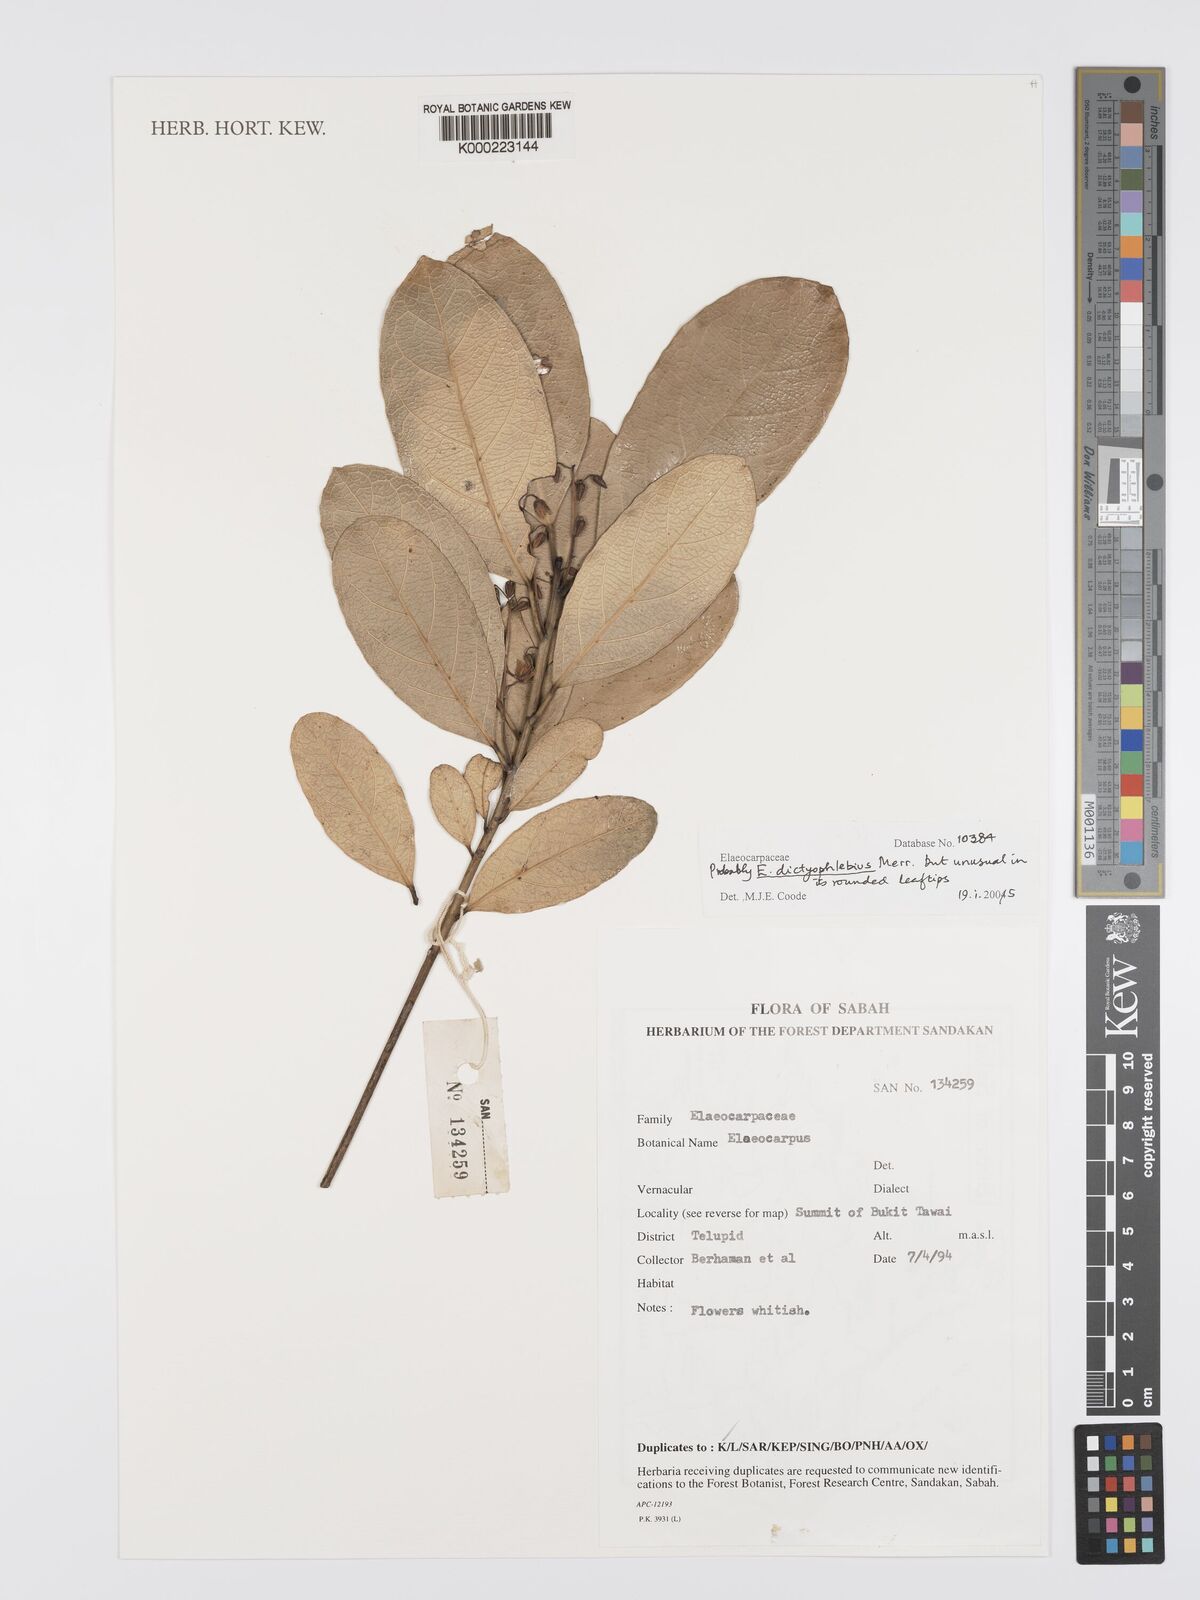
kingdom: Plantae
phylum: Tracheophyta
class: Magnoliopsida
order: Oxalidales
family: Elaeocarpaceae
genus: Elaeocarpus
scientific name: Elaeocarpus dictyophlebius
